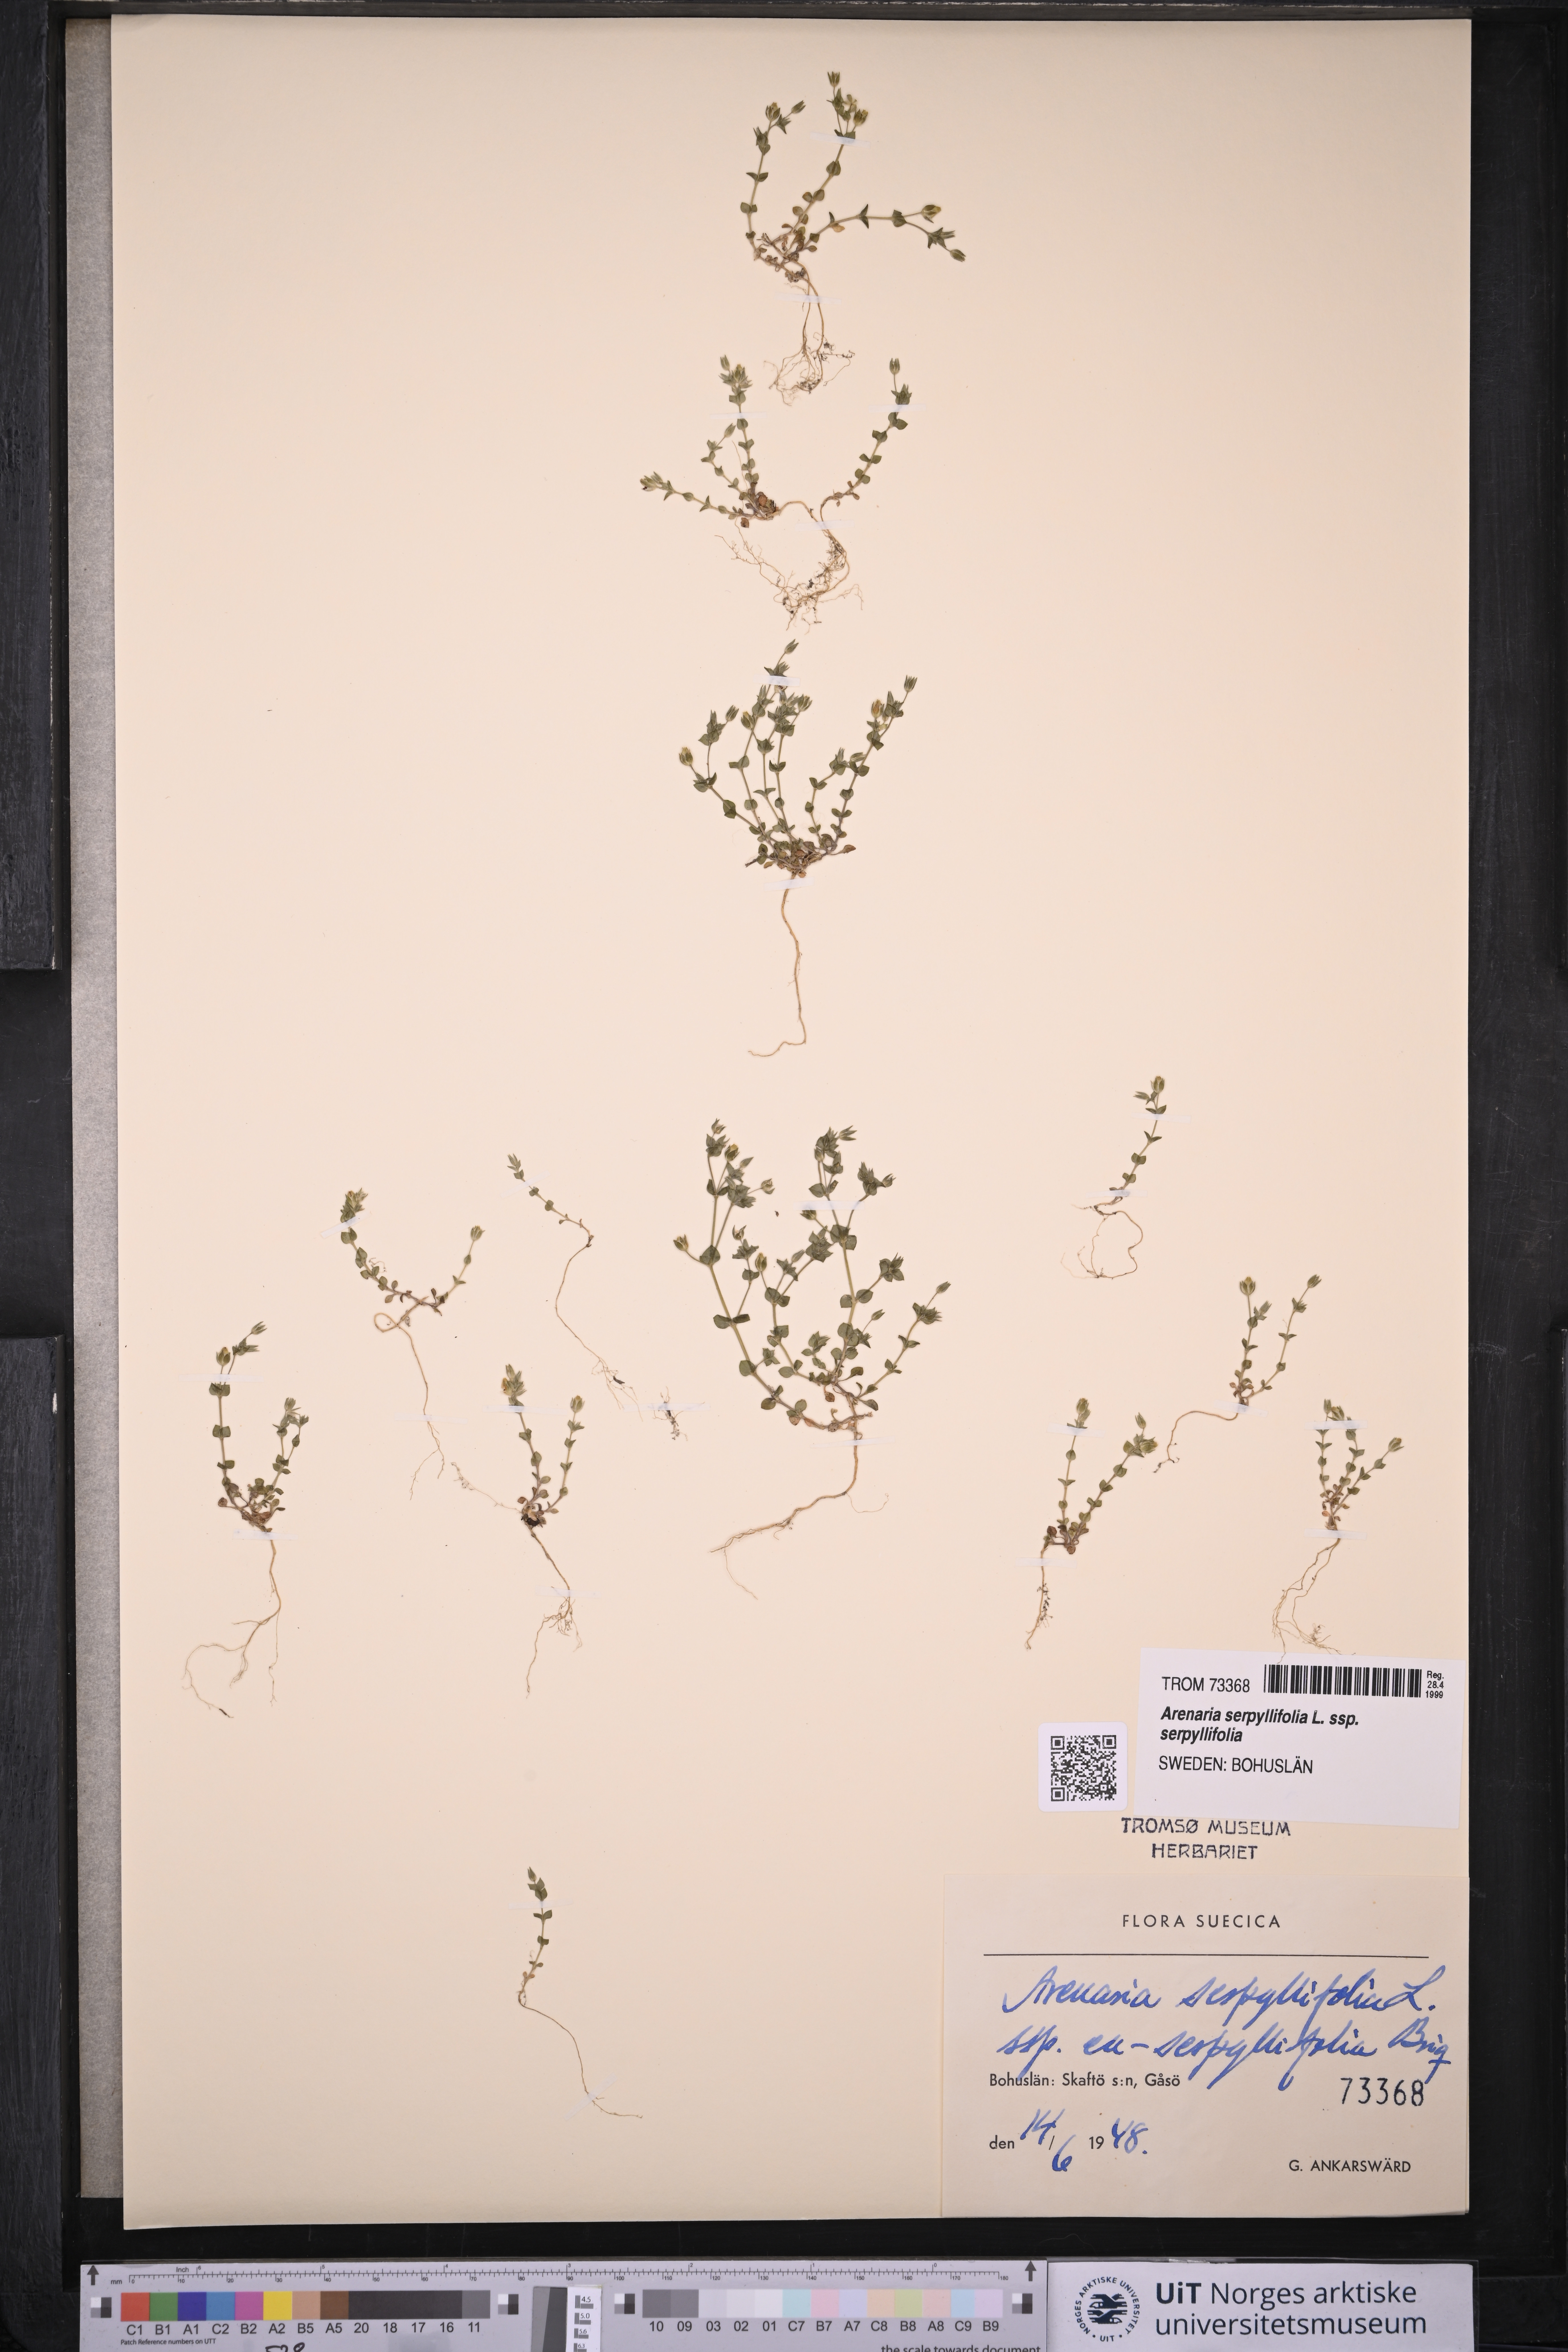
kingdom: Plantae
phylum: Tracheophyta
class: Magnoliopsida
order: Caryophyllales
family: Caryophyllaceae
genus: Arenaria
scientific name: Arenaria serpyllifolia
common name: Thyme-leaved sandwort
